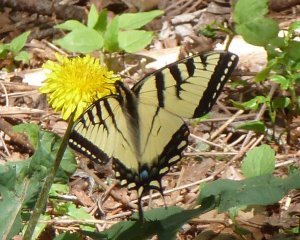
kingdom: Animalia
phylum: Arthropoda
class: Insecta
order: Lepidoptera
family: Papilionidae
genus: Pterourus
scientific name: Pterourus canadensis
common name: Canadian Tiger Swallowtail
